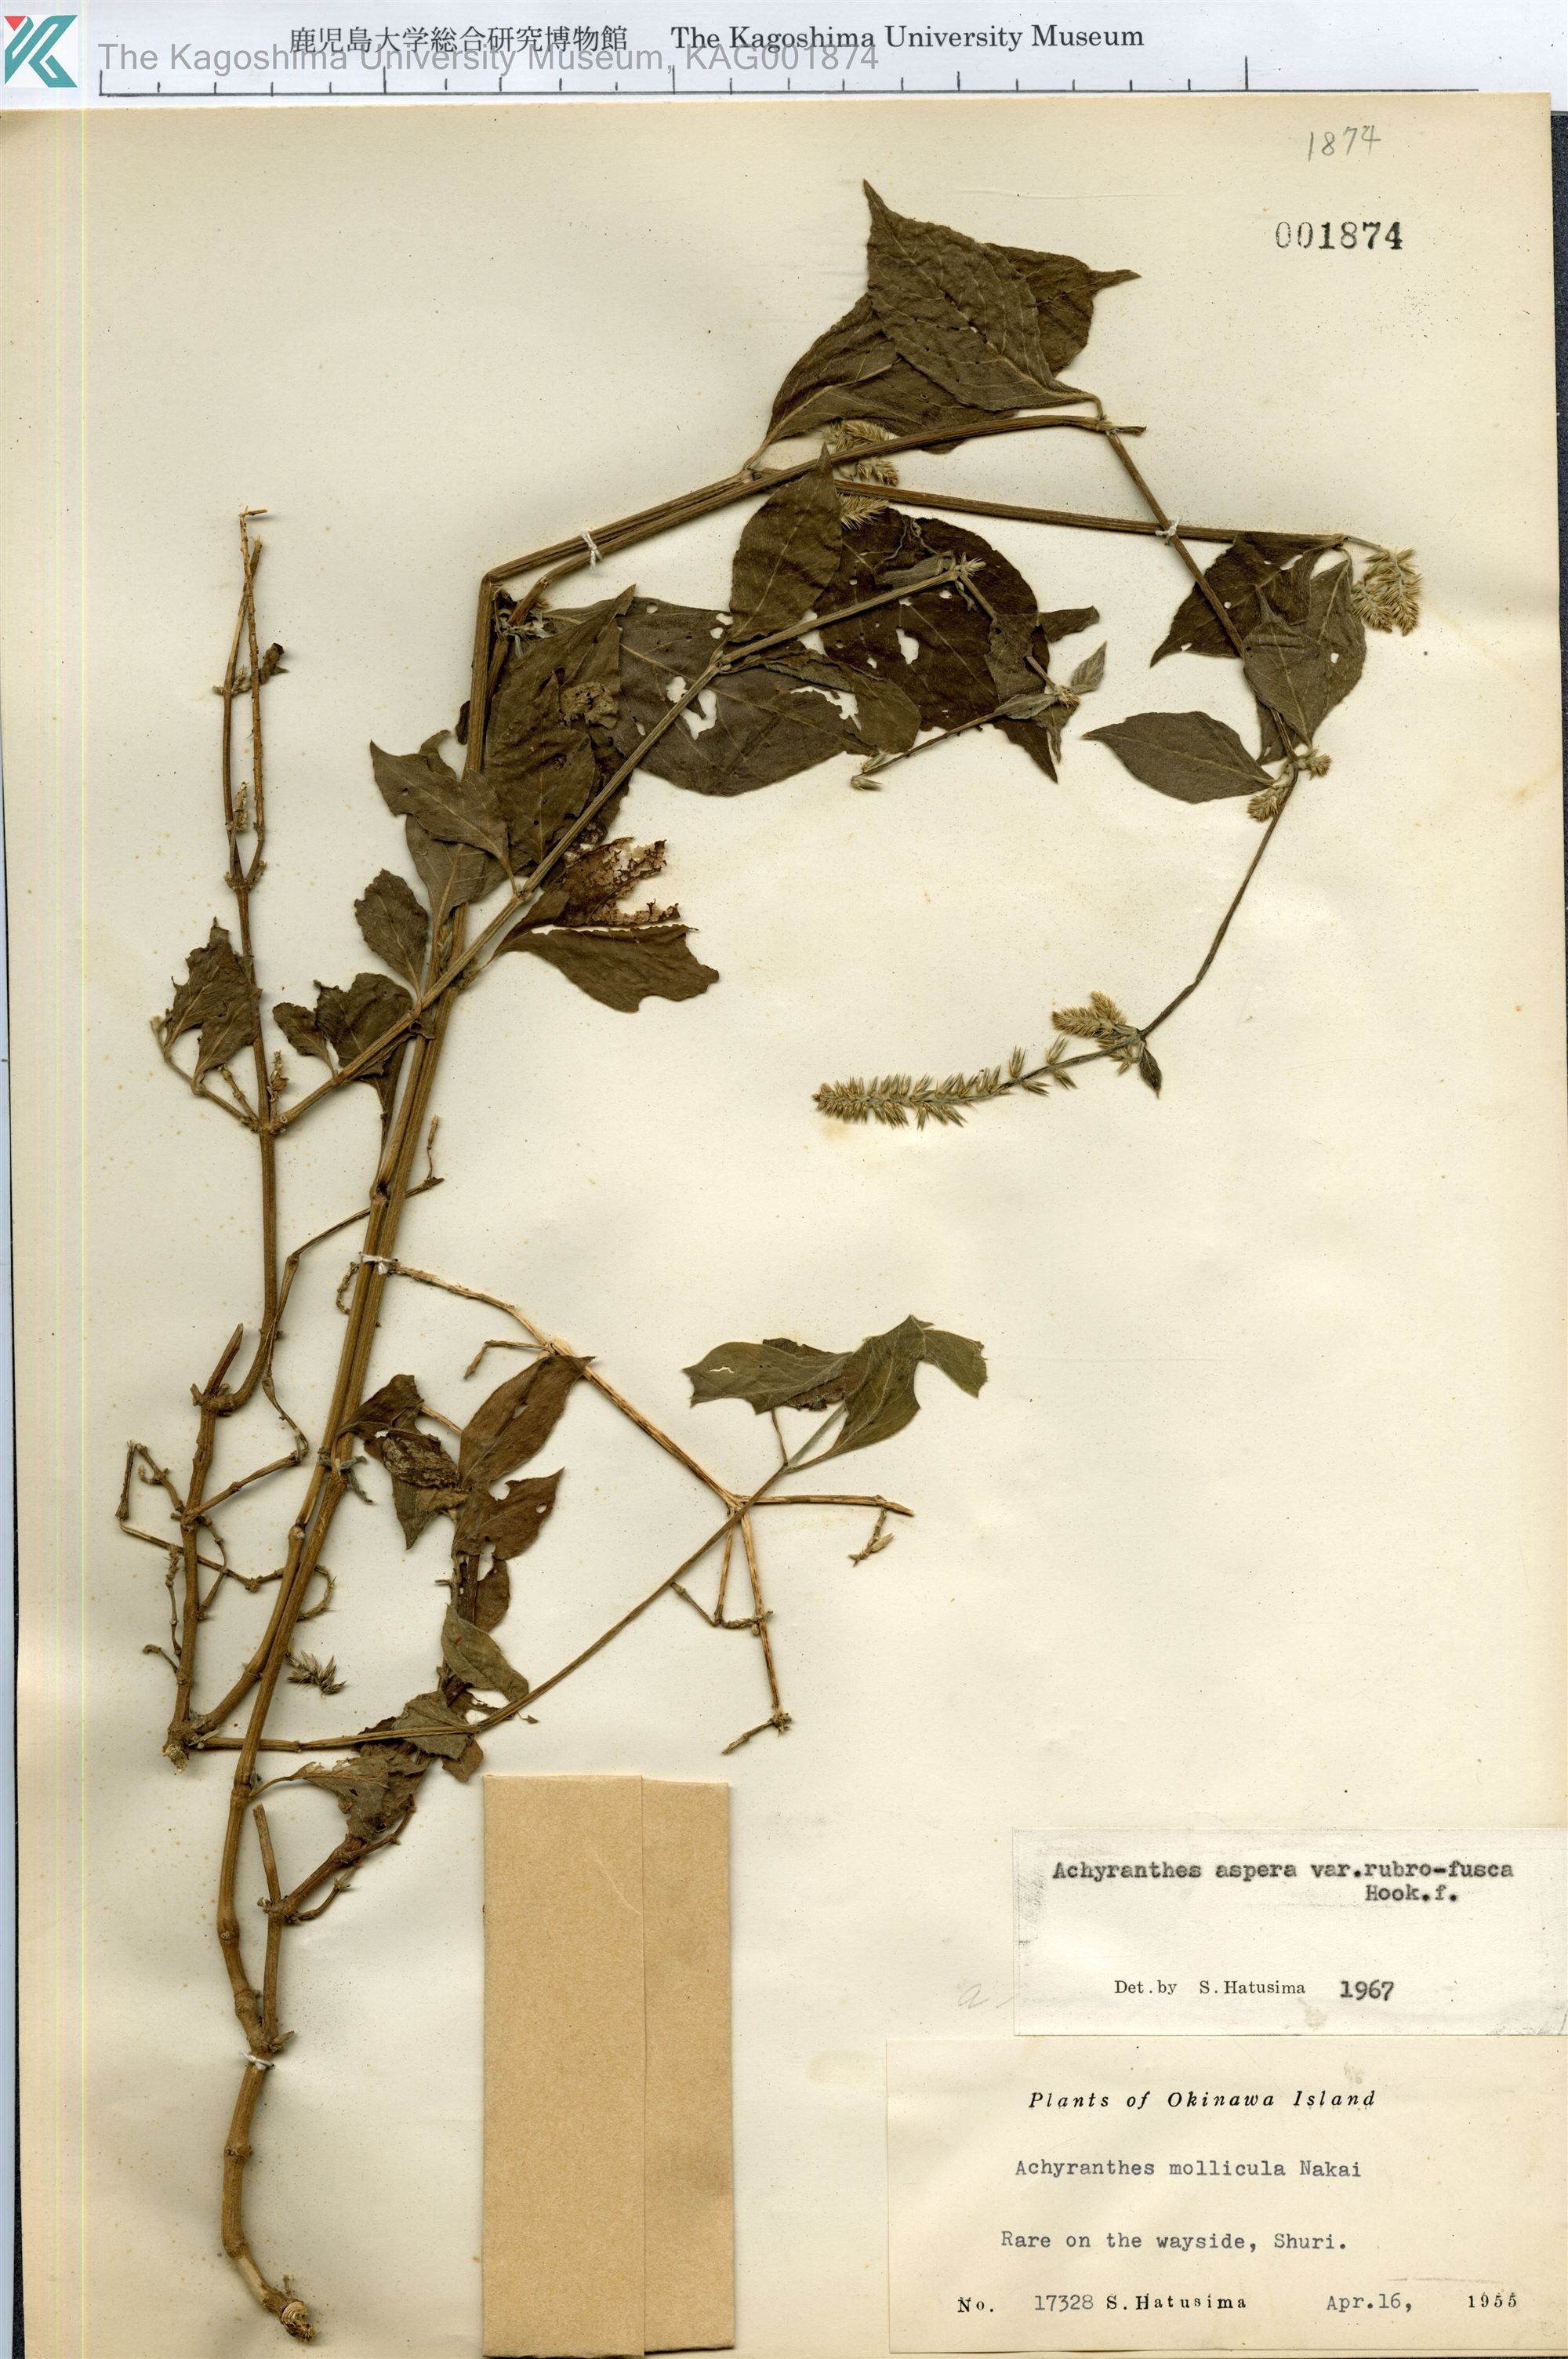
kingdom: Plantae
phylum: Tracheophyta
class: Magnoliopsida
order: Caryophyllales
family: Amaranthaceae
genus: Achyranthes
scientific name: Achyranthes aspera
